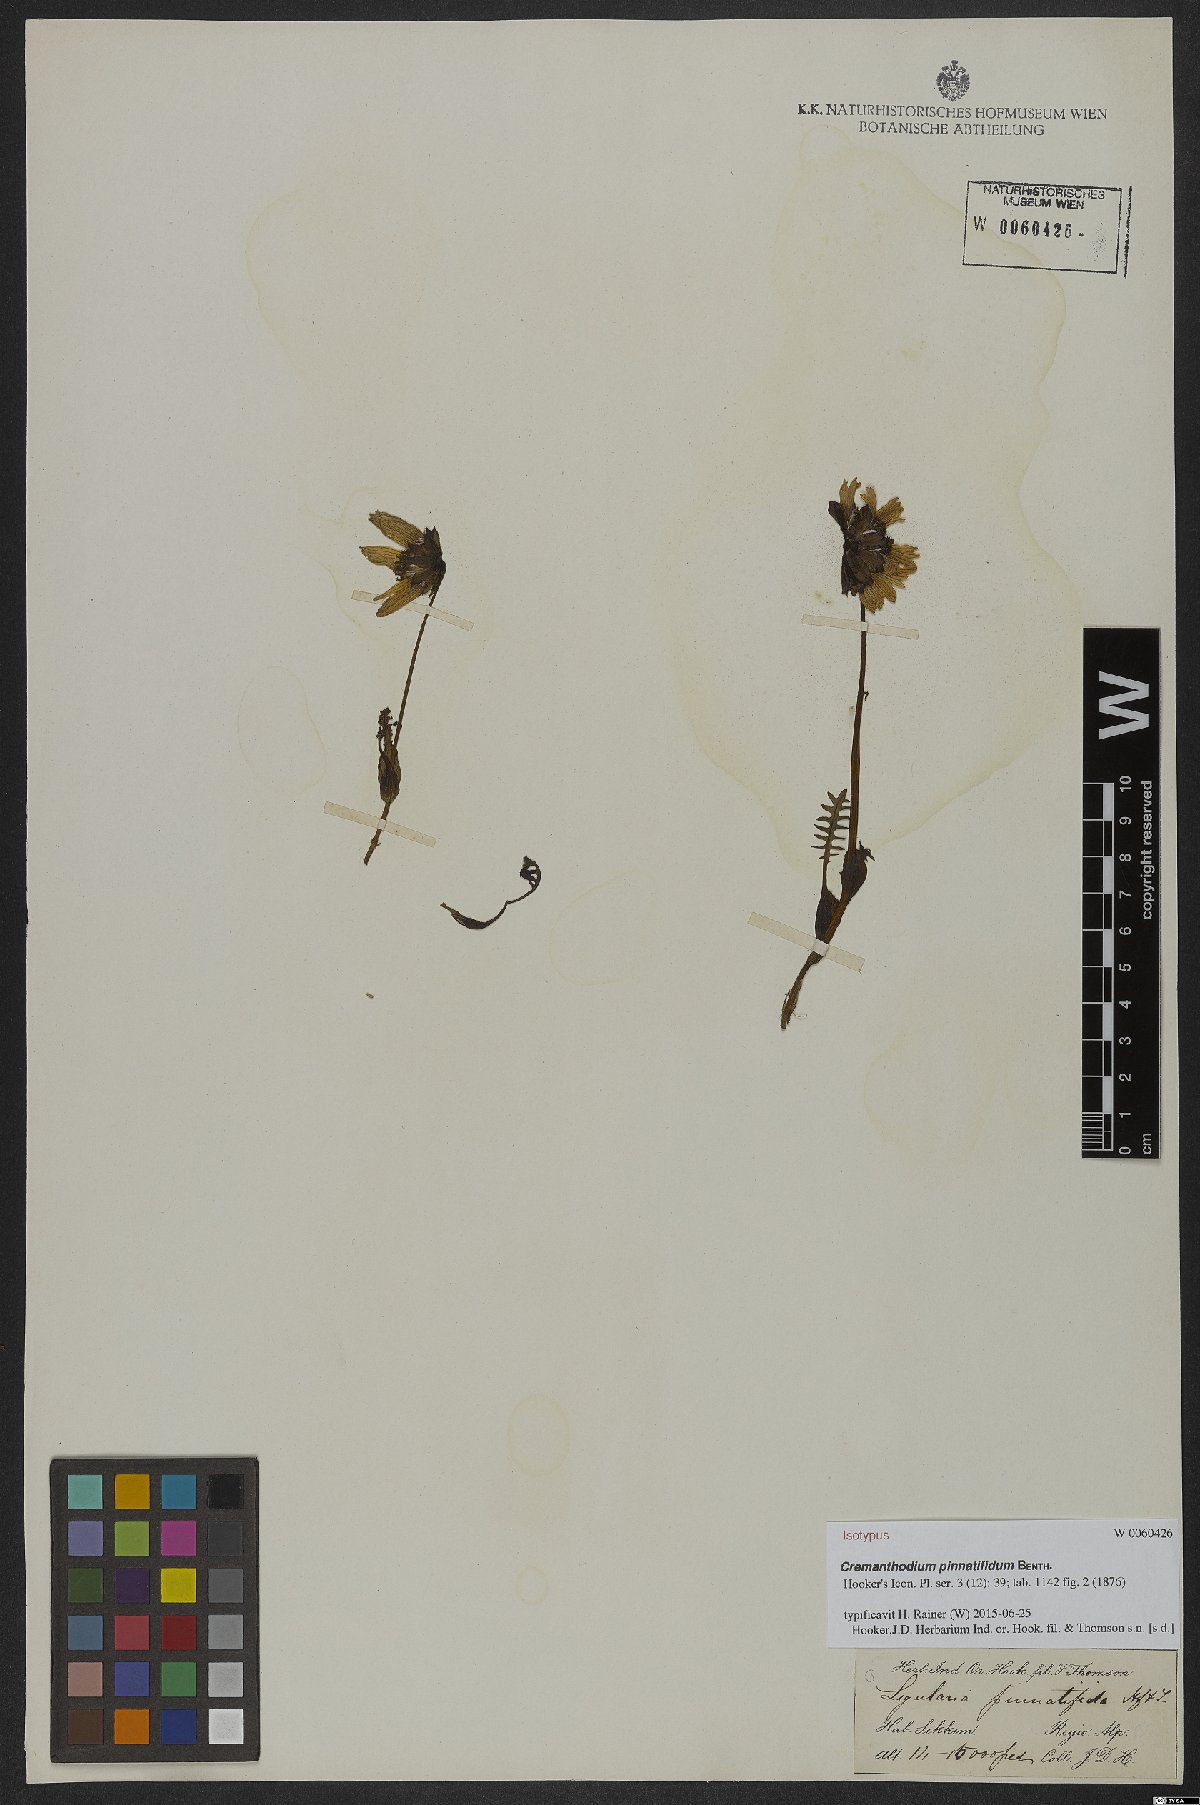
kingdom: Plantae
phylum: Tracheophyta
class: Magnoliopsida
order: Asterales
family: Asteraceae
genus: Cremanthodium
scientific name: Cremanthodium pinnatifidum
